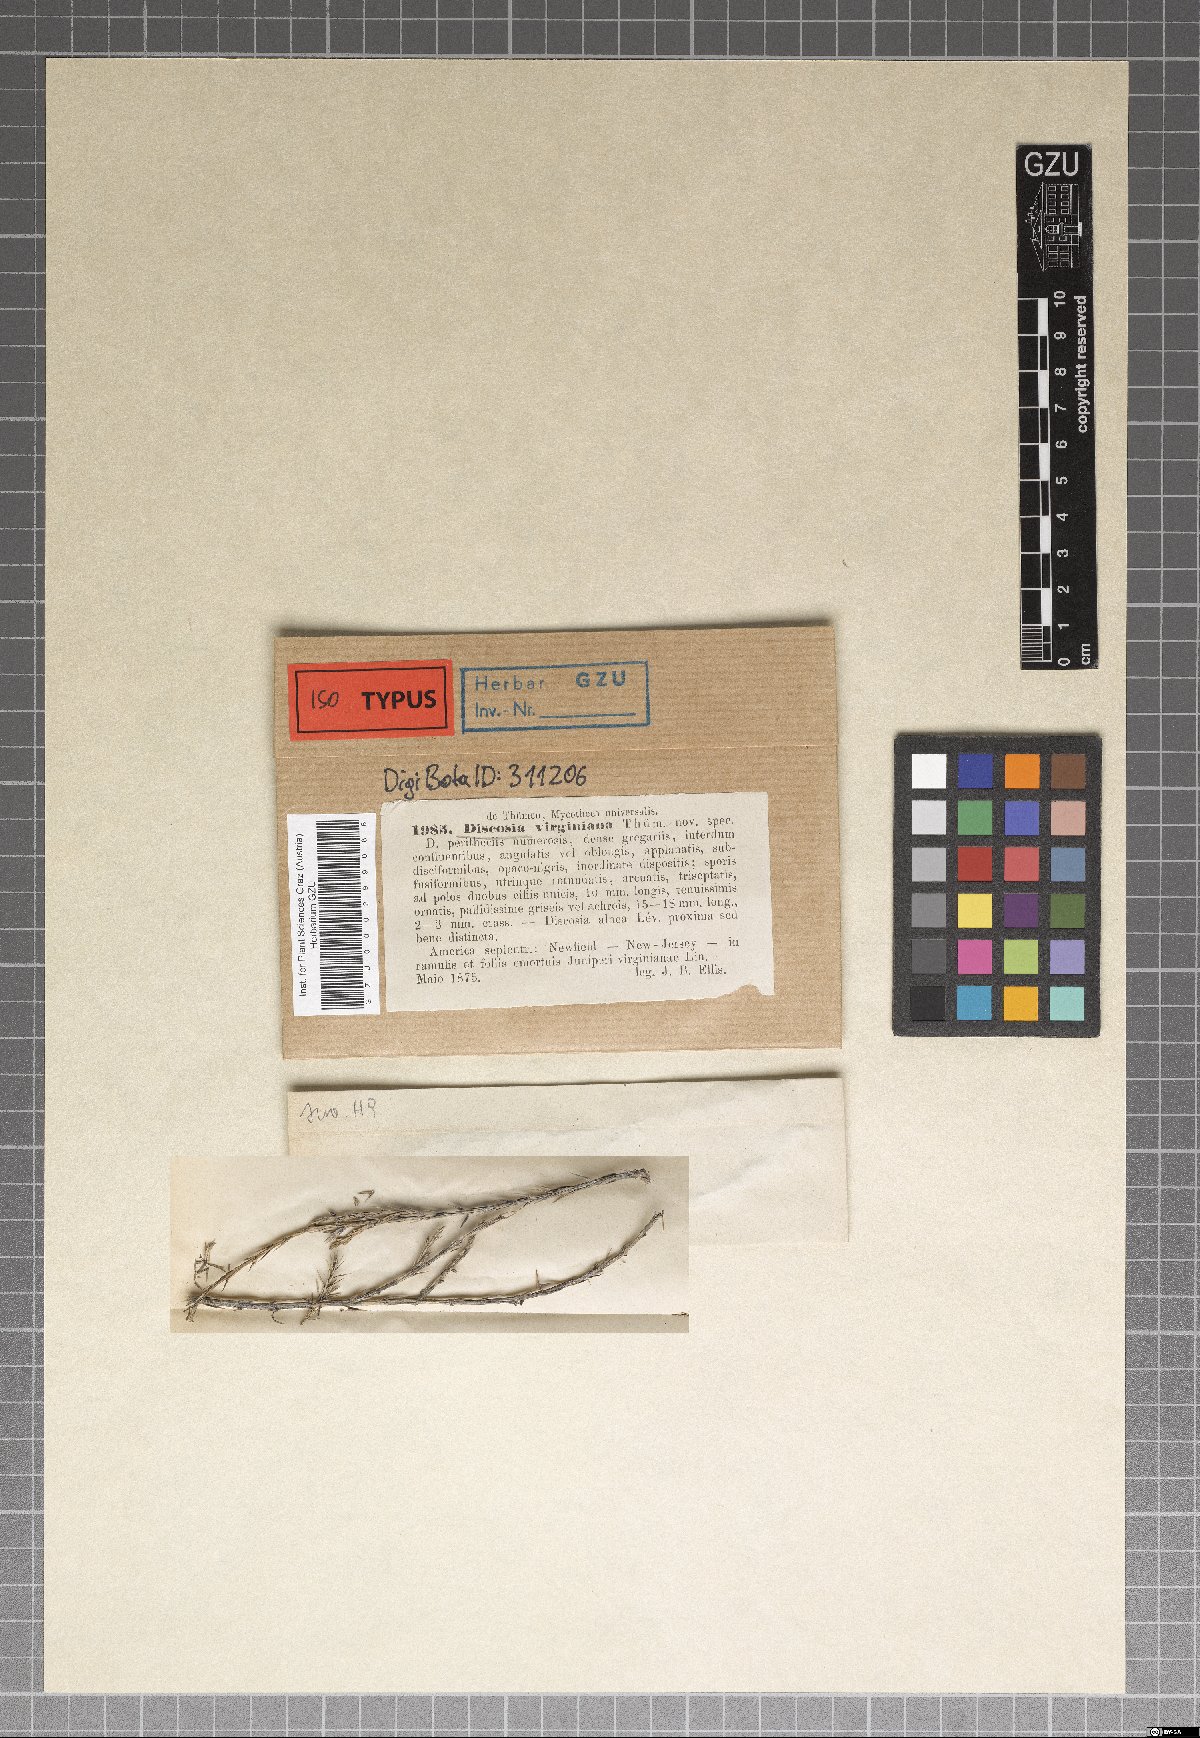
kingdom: Fungi
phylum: Ascomycota
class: Sordariomycetes
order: Amphisphaeriales
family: Amphisphaeriaceae
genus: Discosia
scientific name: Discosia
